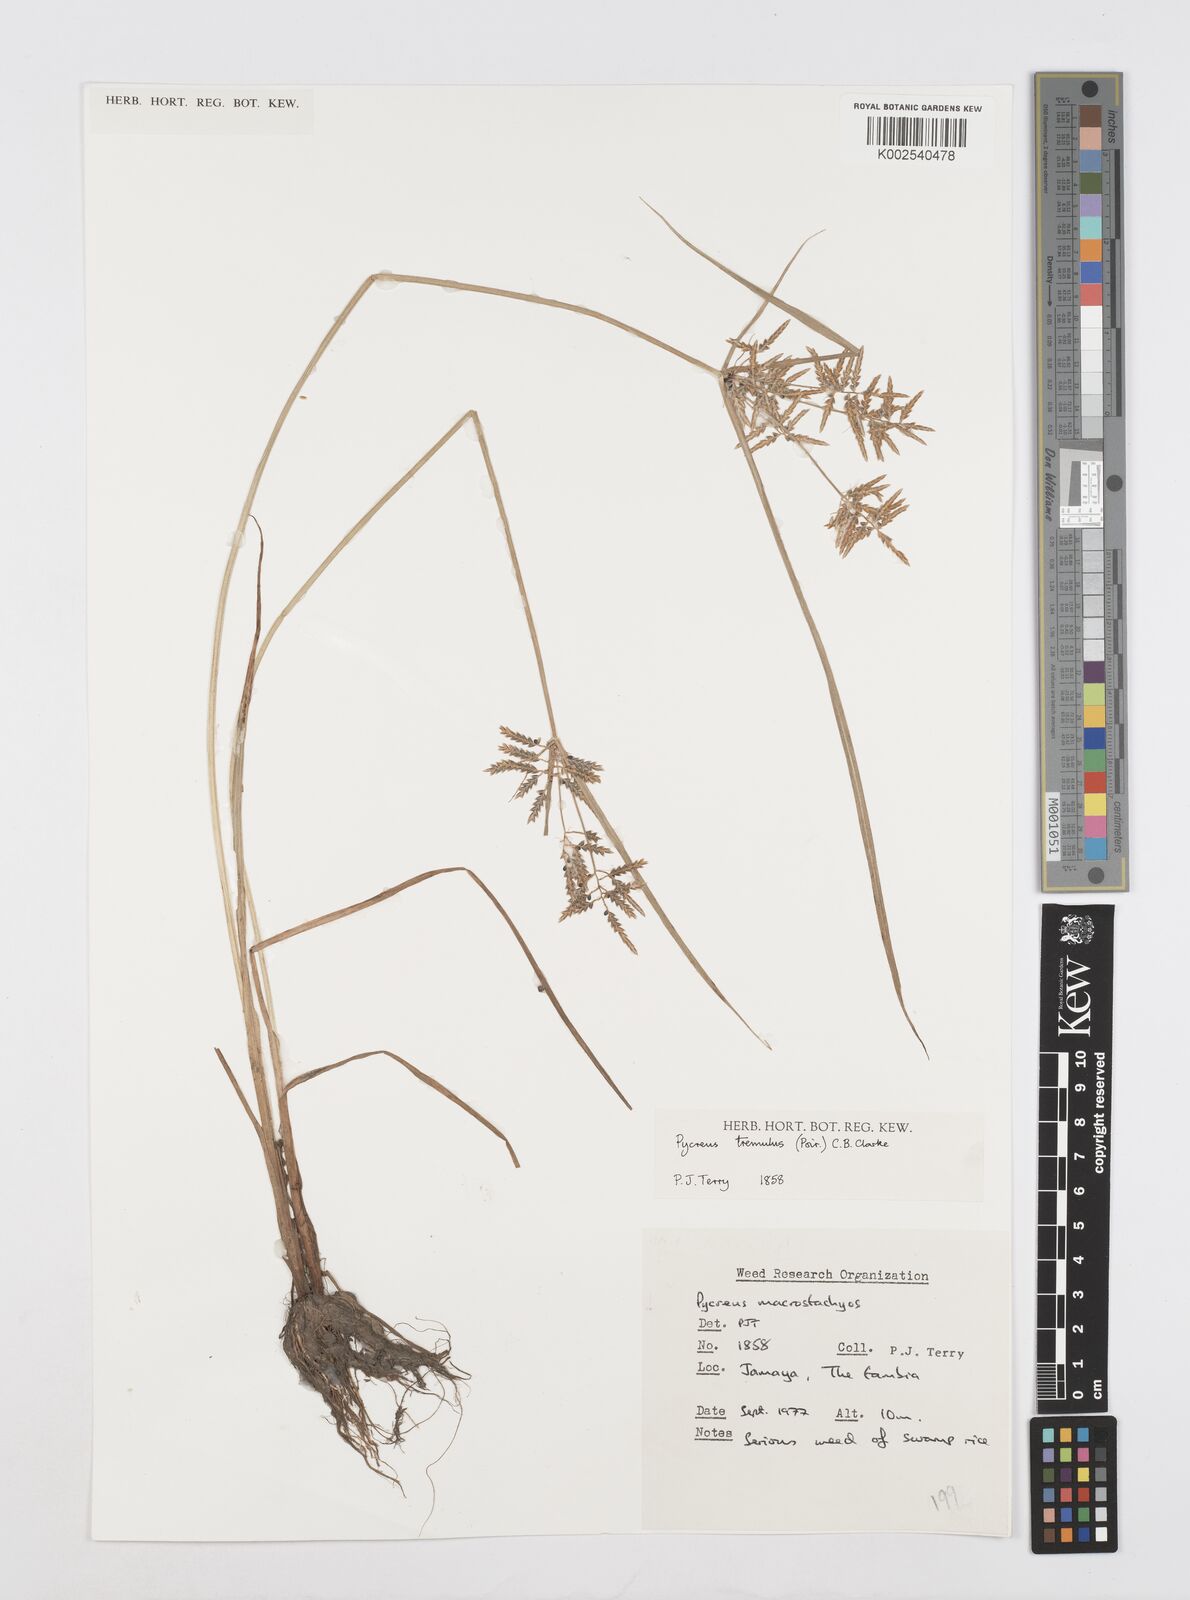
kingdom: Plantae
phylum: Tracheophyta
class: Liliopsida
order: Poales
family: Cyperaceae
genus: Cyperus
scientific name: Cyperus macrostachyos
